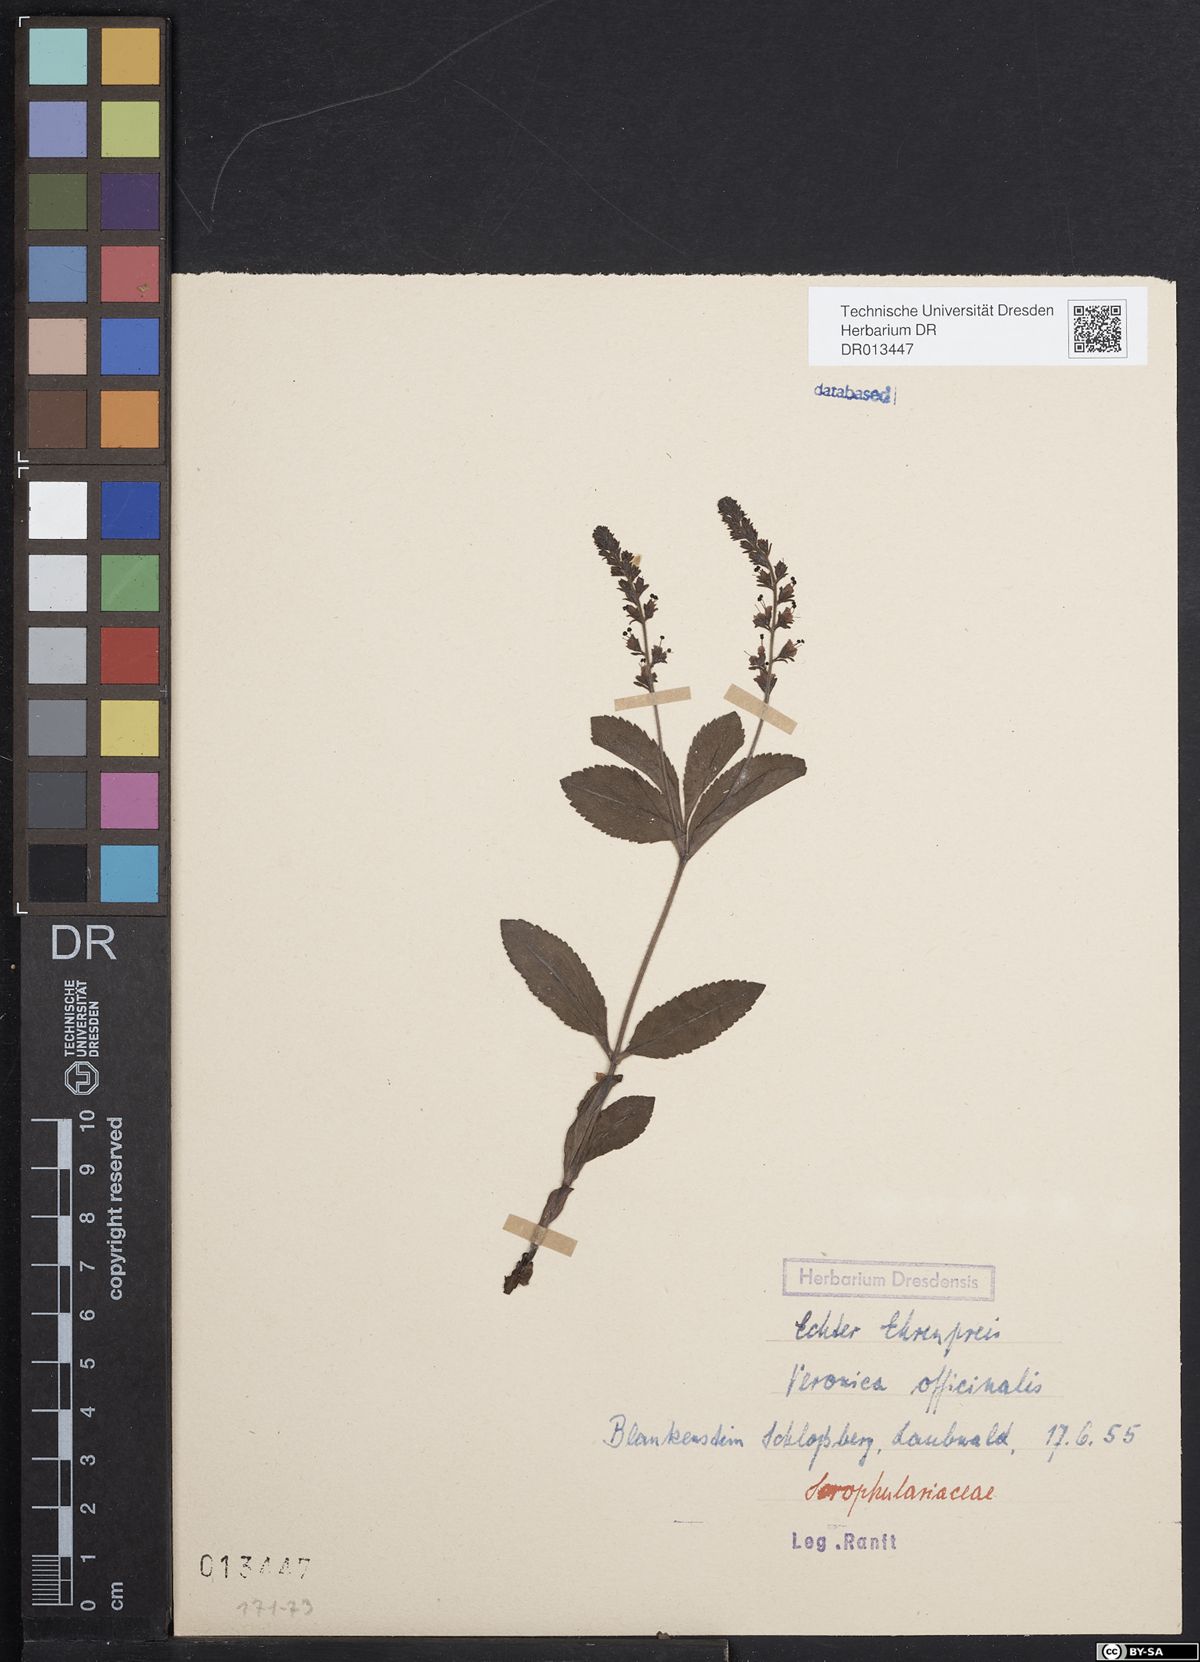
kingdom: Plantae
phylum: Tracheophyta
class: Magnoliopsida
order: Lamiales
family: Plantaginaceae
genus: Veronica
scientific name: Veronica officinalis
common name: Common speedwell
